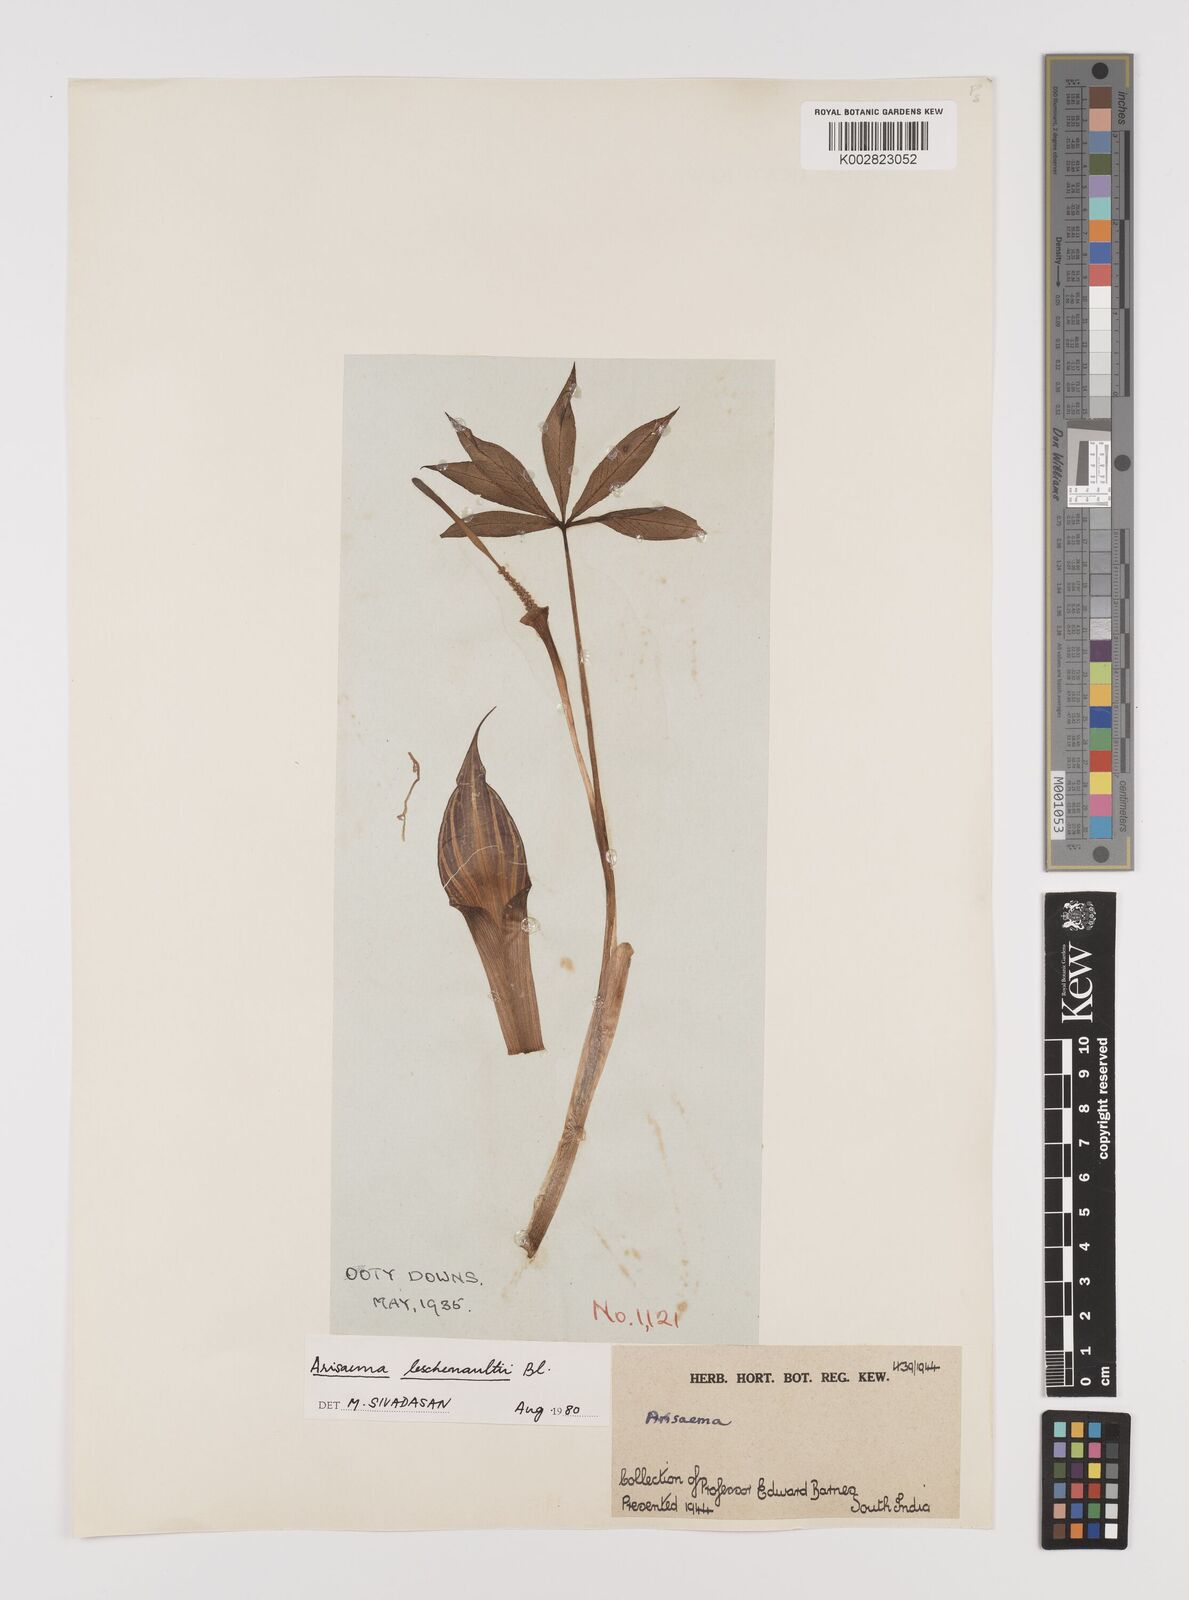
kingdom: Plantae
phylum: Tracheophyta
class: Liliopsida
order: Alismatales
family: Araceae
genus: Arisaema
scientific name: Arisaema leschenaultii
